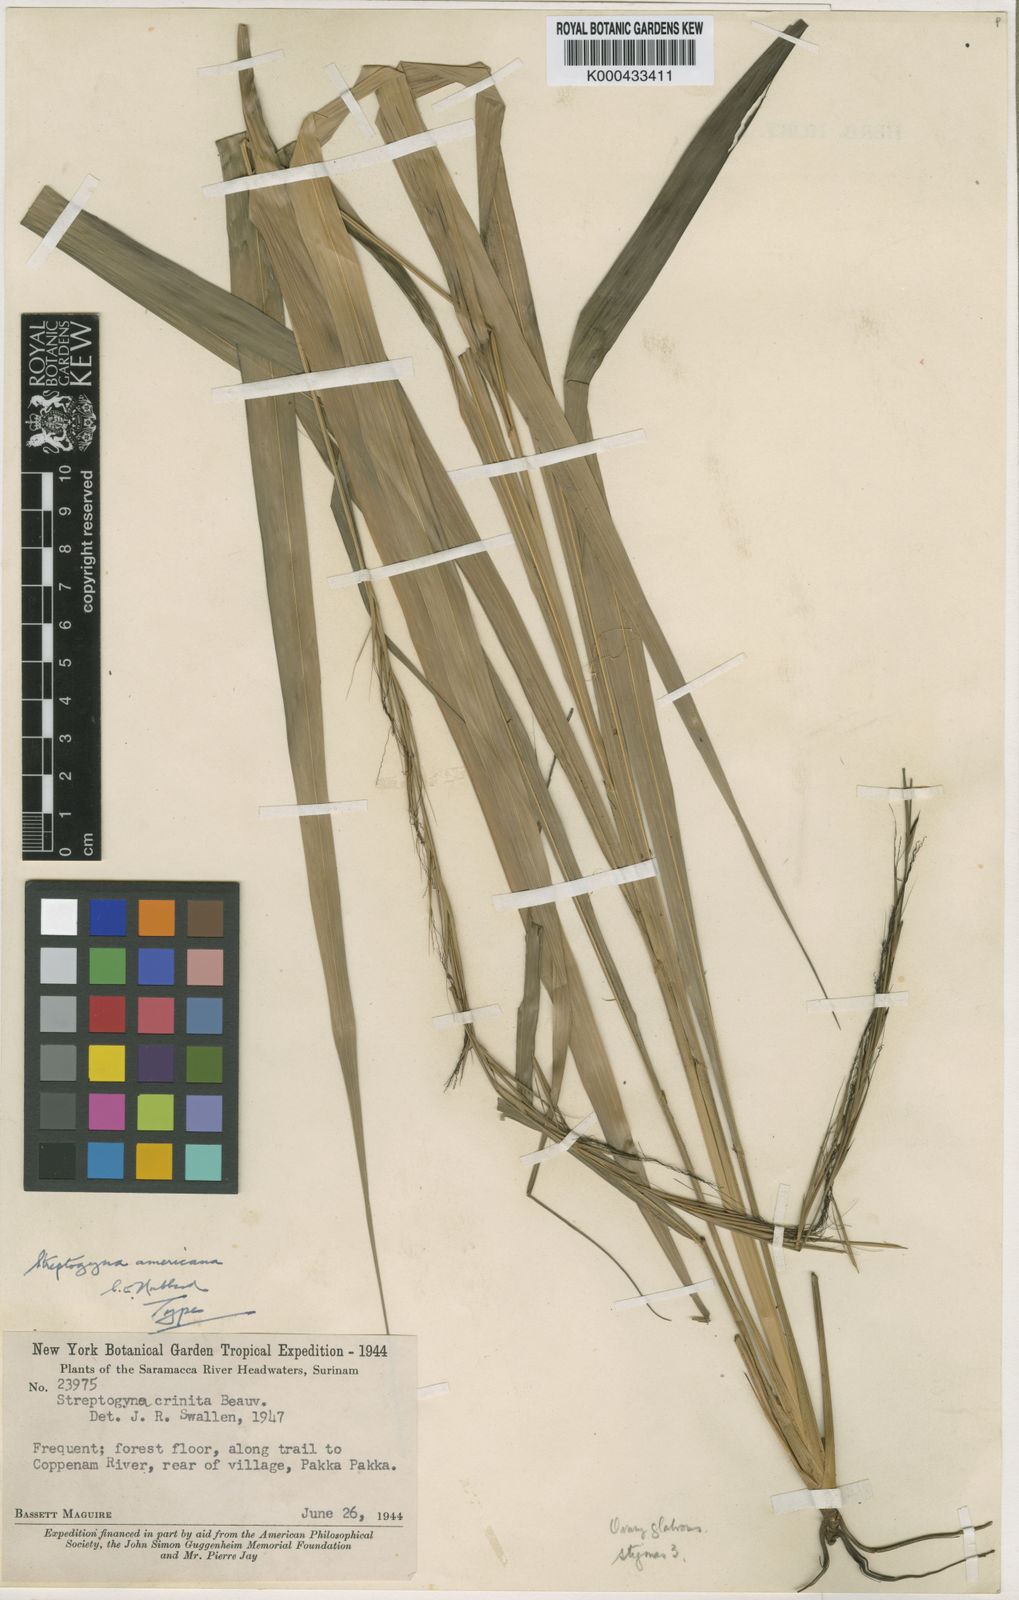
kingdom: Plantae
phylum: Tracheophyta
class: Liliopsida
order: Poales
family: Poaceae
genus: Streptogyna
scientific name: Streptogyna americana
